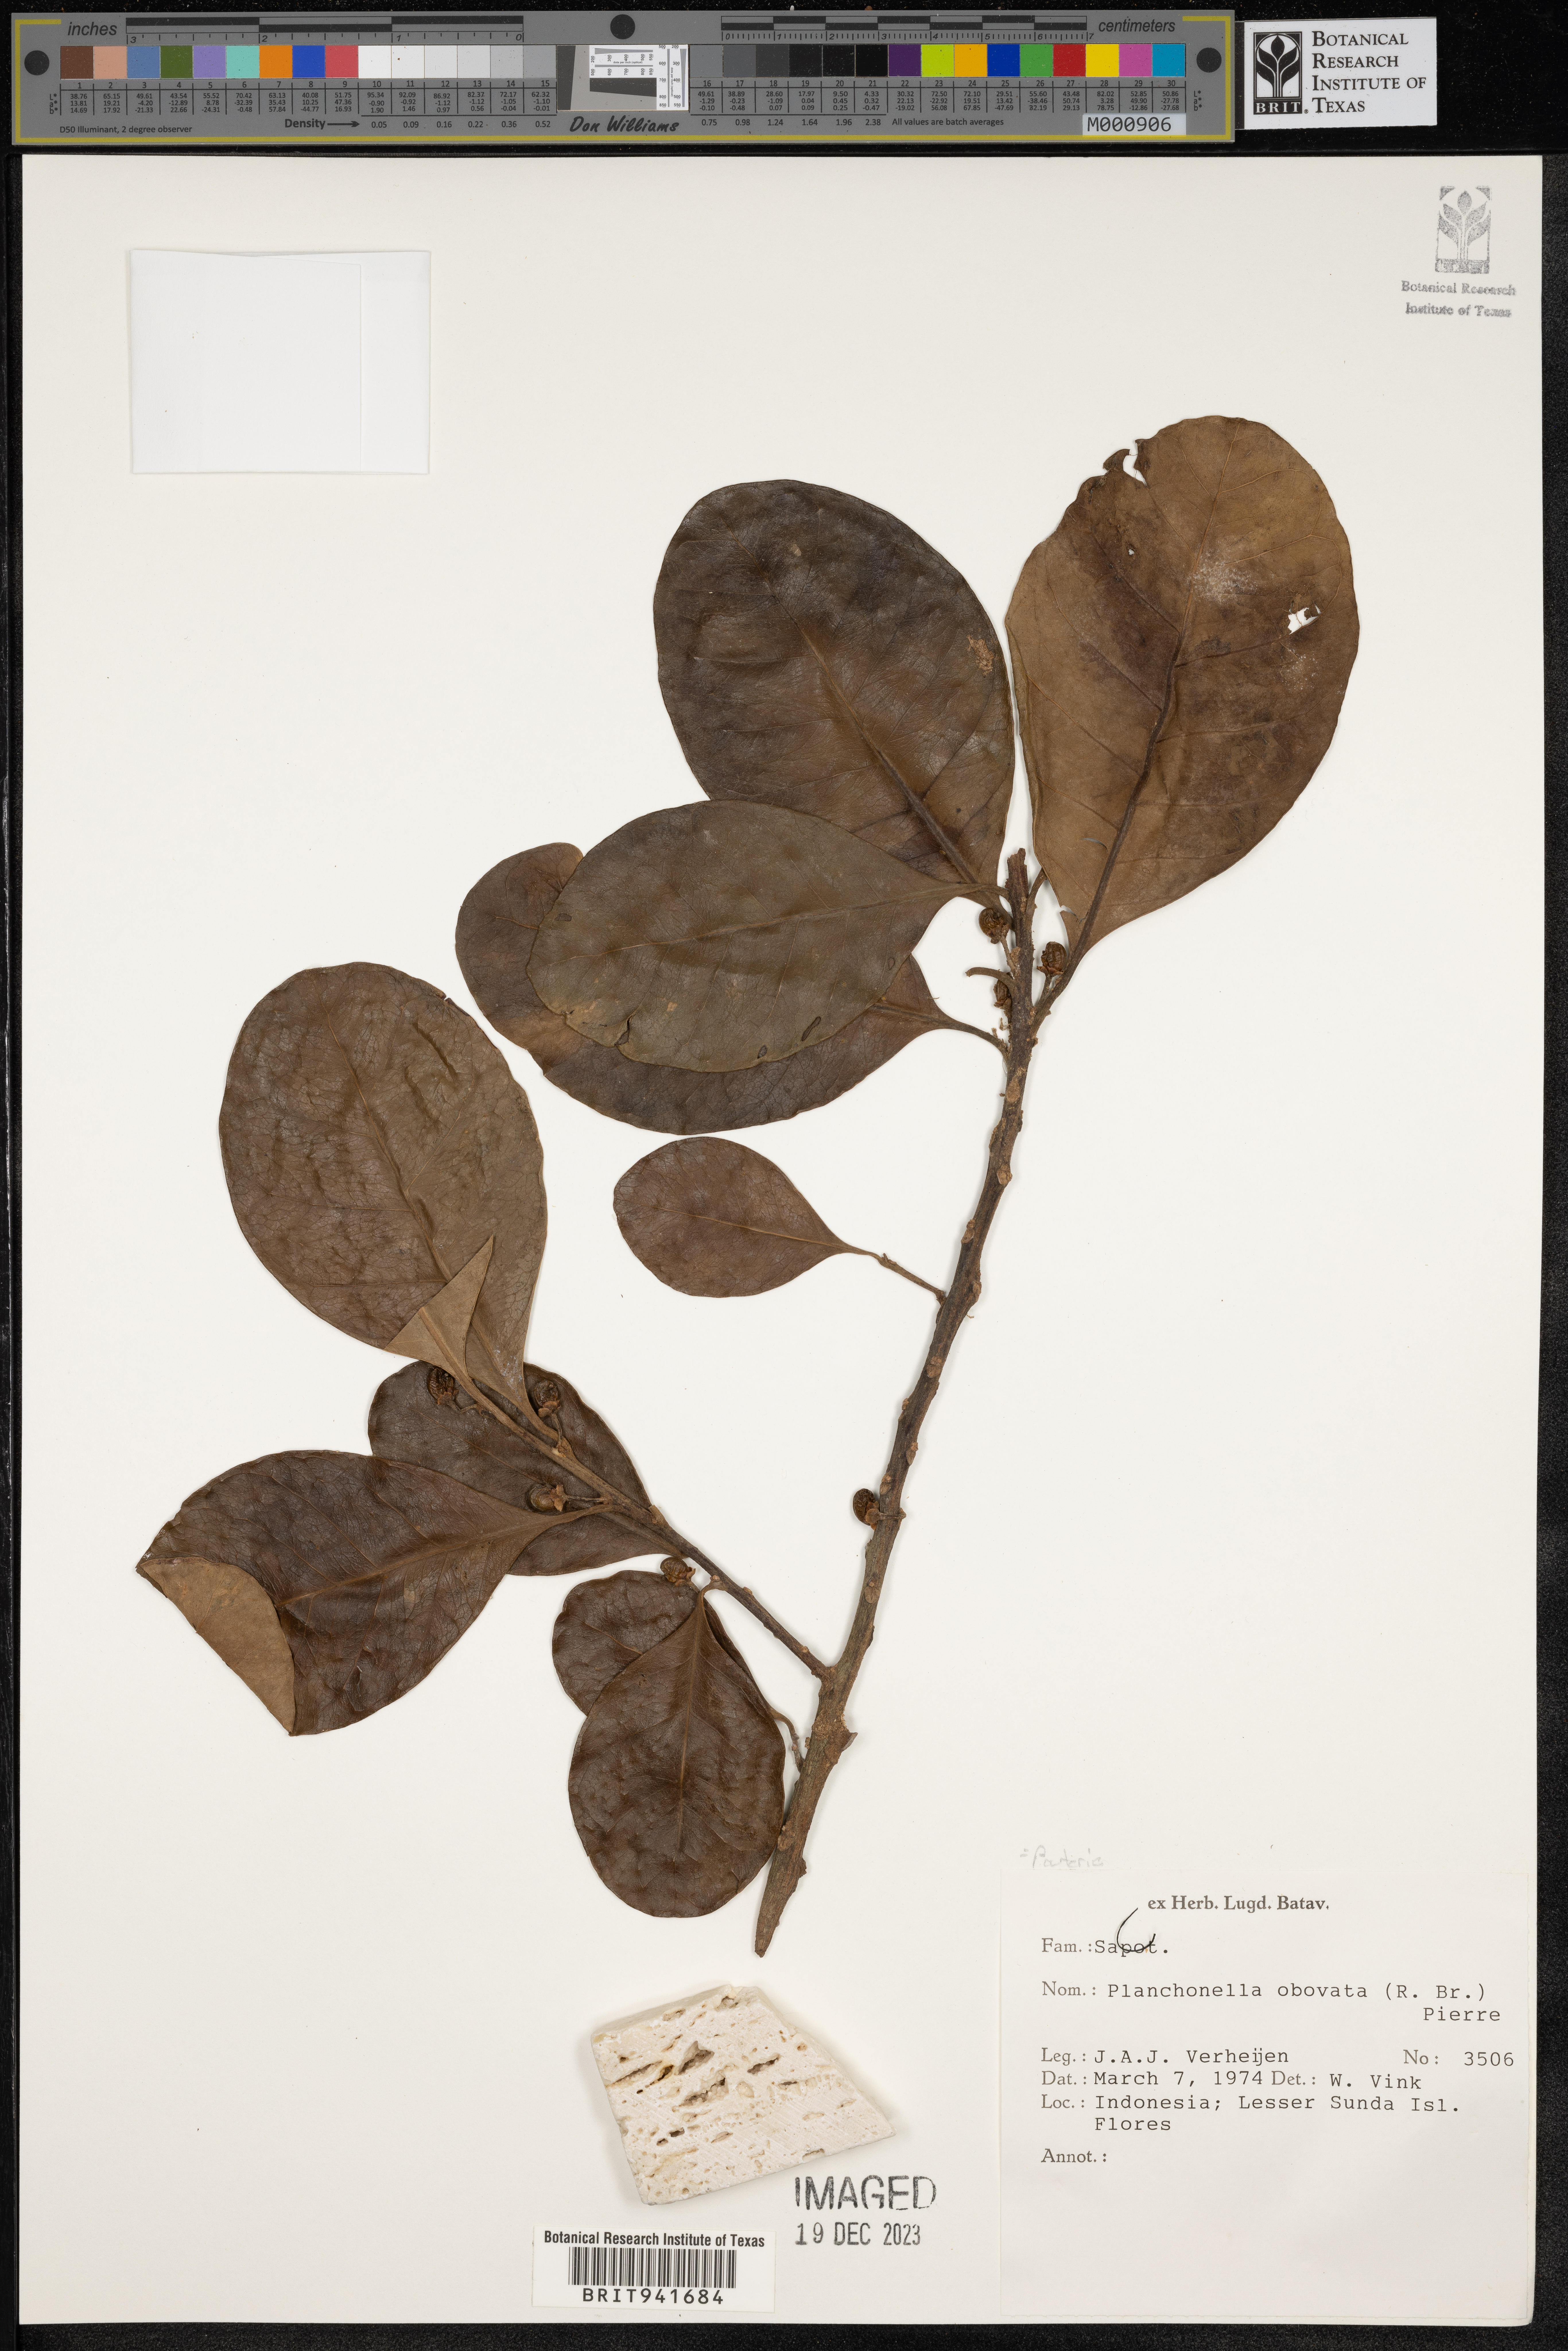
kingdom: Plantae
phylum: Tracheophyta
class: Magnoliopsida
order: Ericales
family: Sapotaceae
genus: Planchonella
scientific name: Planchonella obovata
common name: Black-ash
